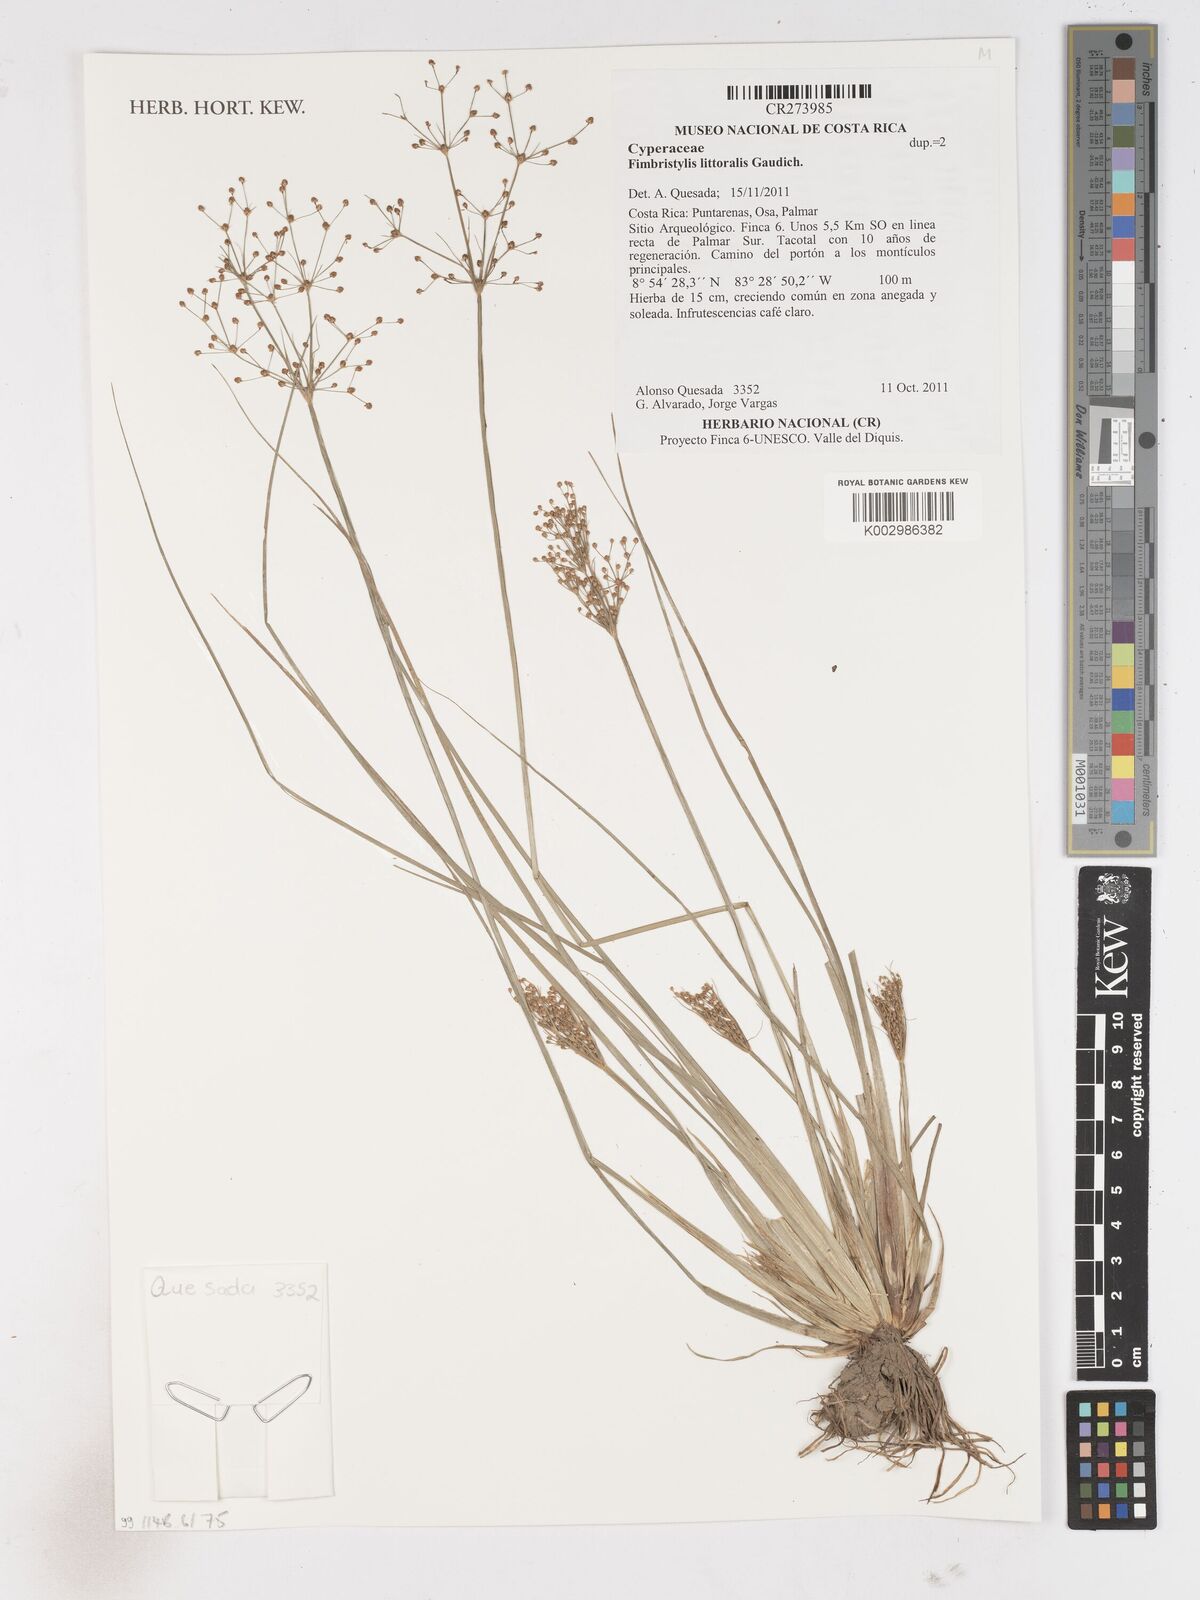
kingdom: Plantae
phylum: Tracheophyta
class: Liliopsida
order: Poales
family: Cyperaceae
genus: Fimbristylis
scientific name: Fimbristylis littoralis
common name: Fimbry
